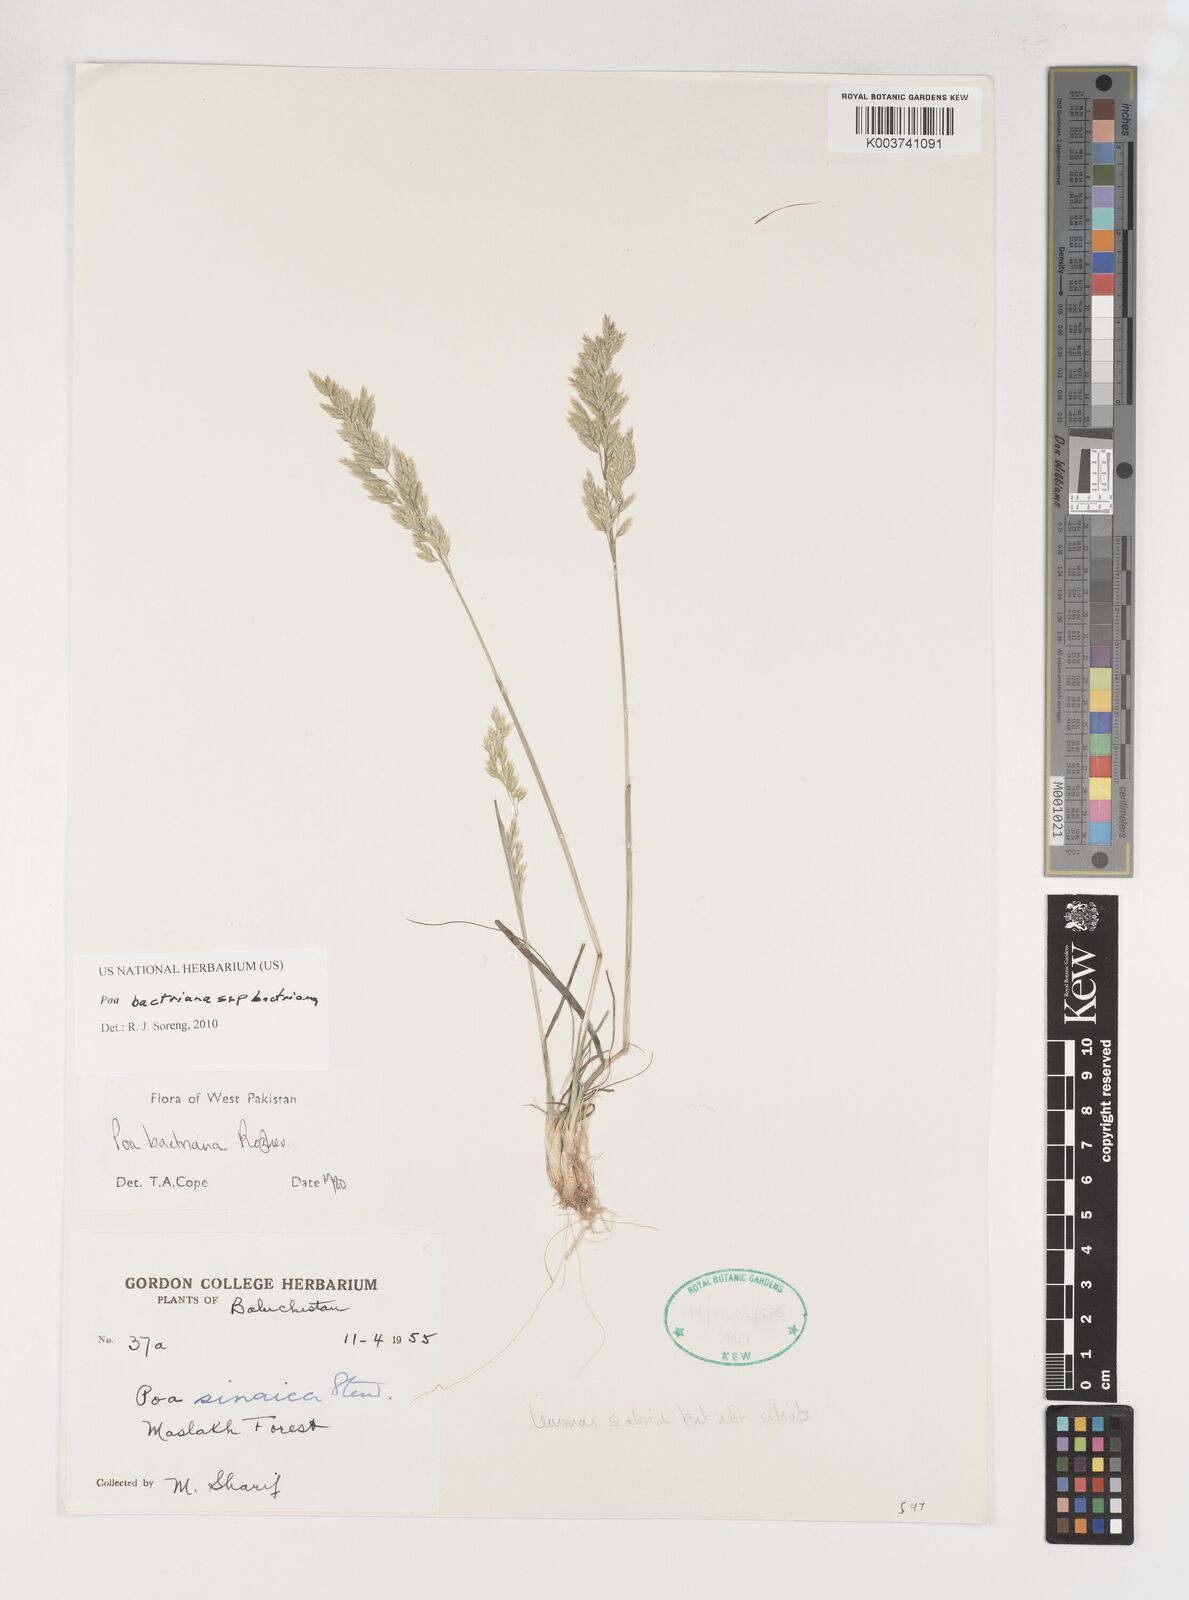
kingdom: Plantae
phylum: Tracheophyta
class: Liliopsida
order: Poales
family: Poaceae
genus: Poa
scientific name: Poa bactriana
